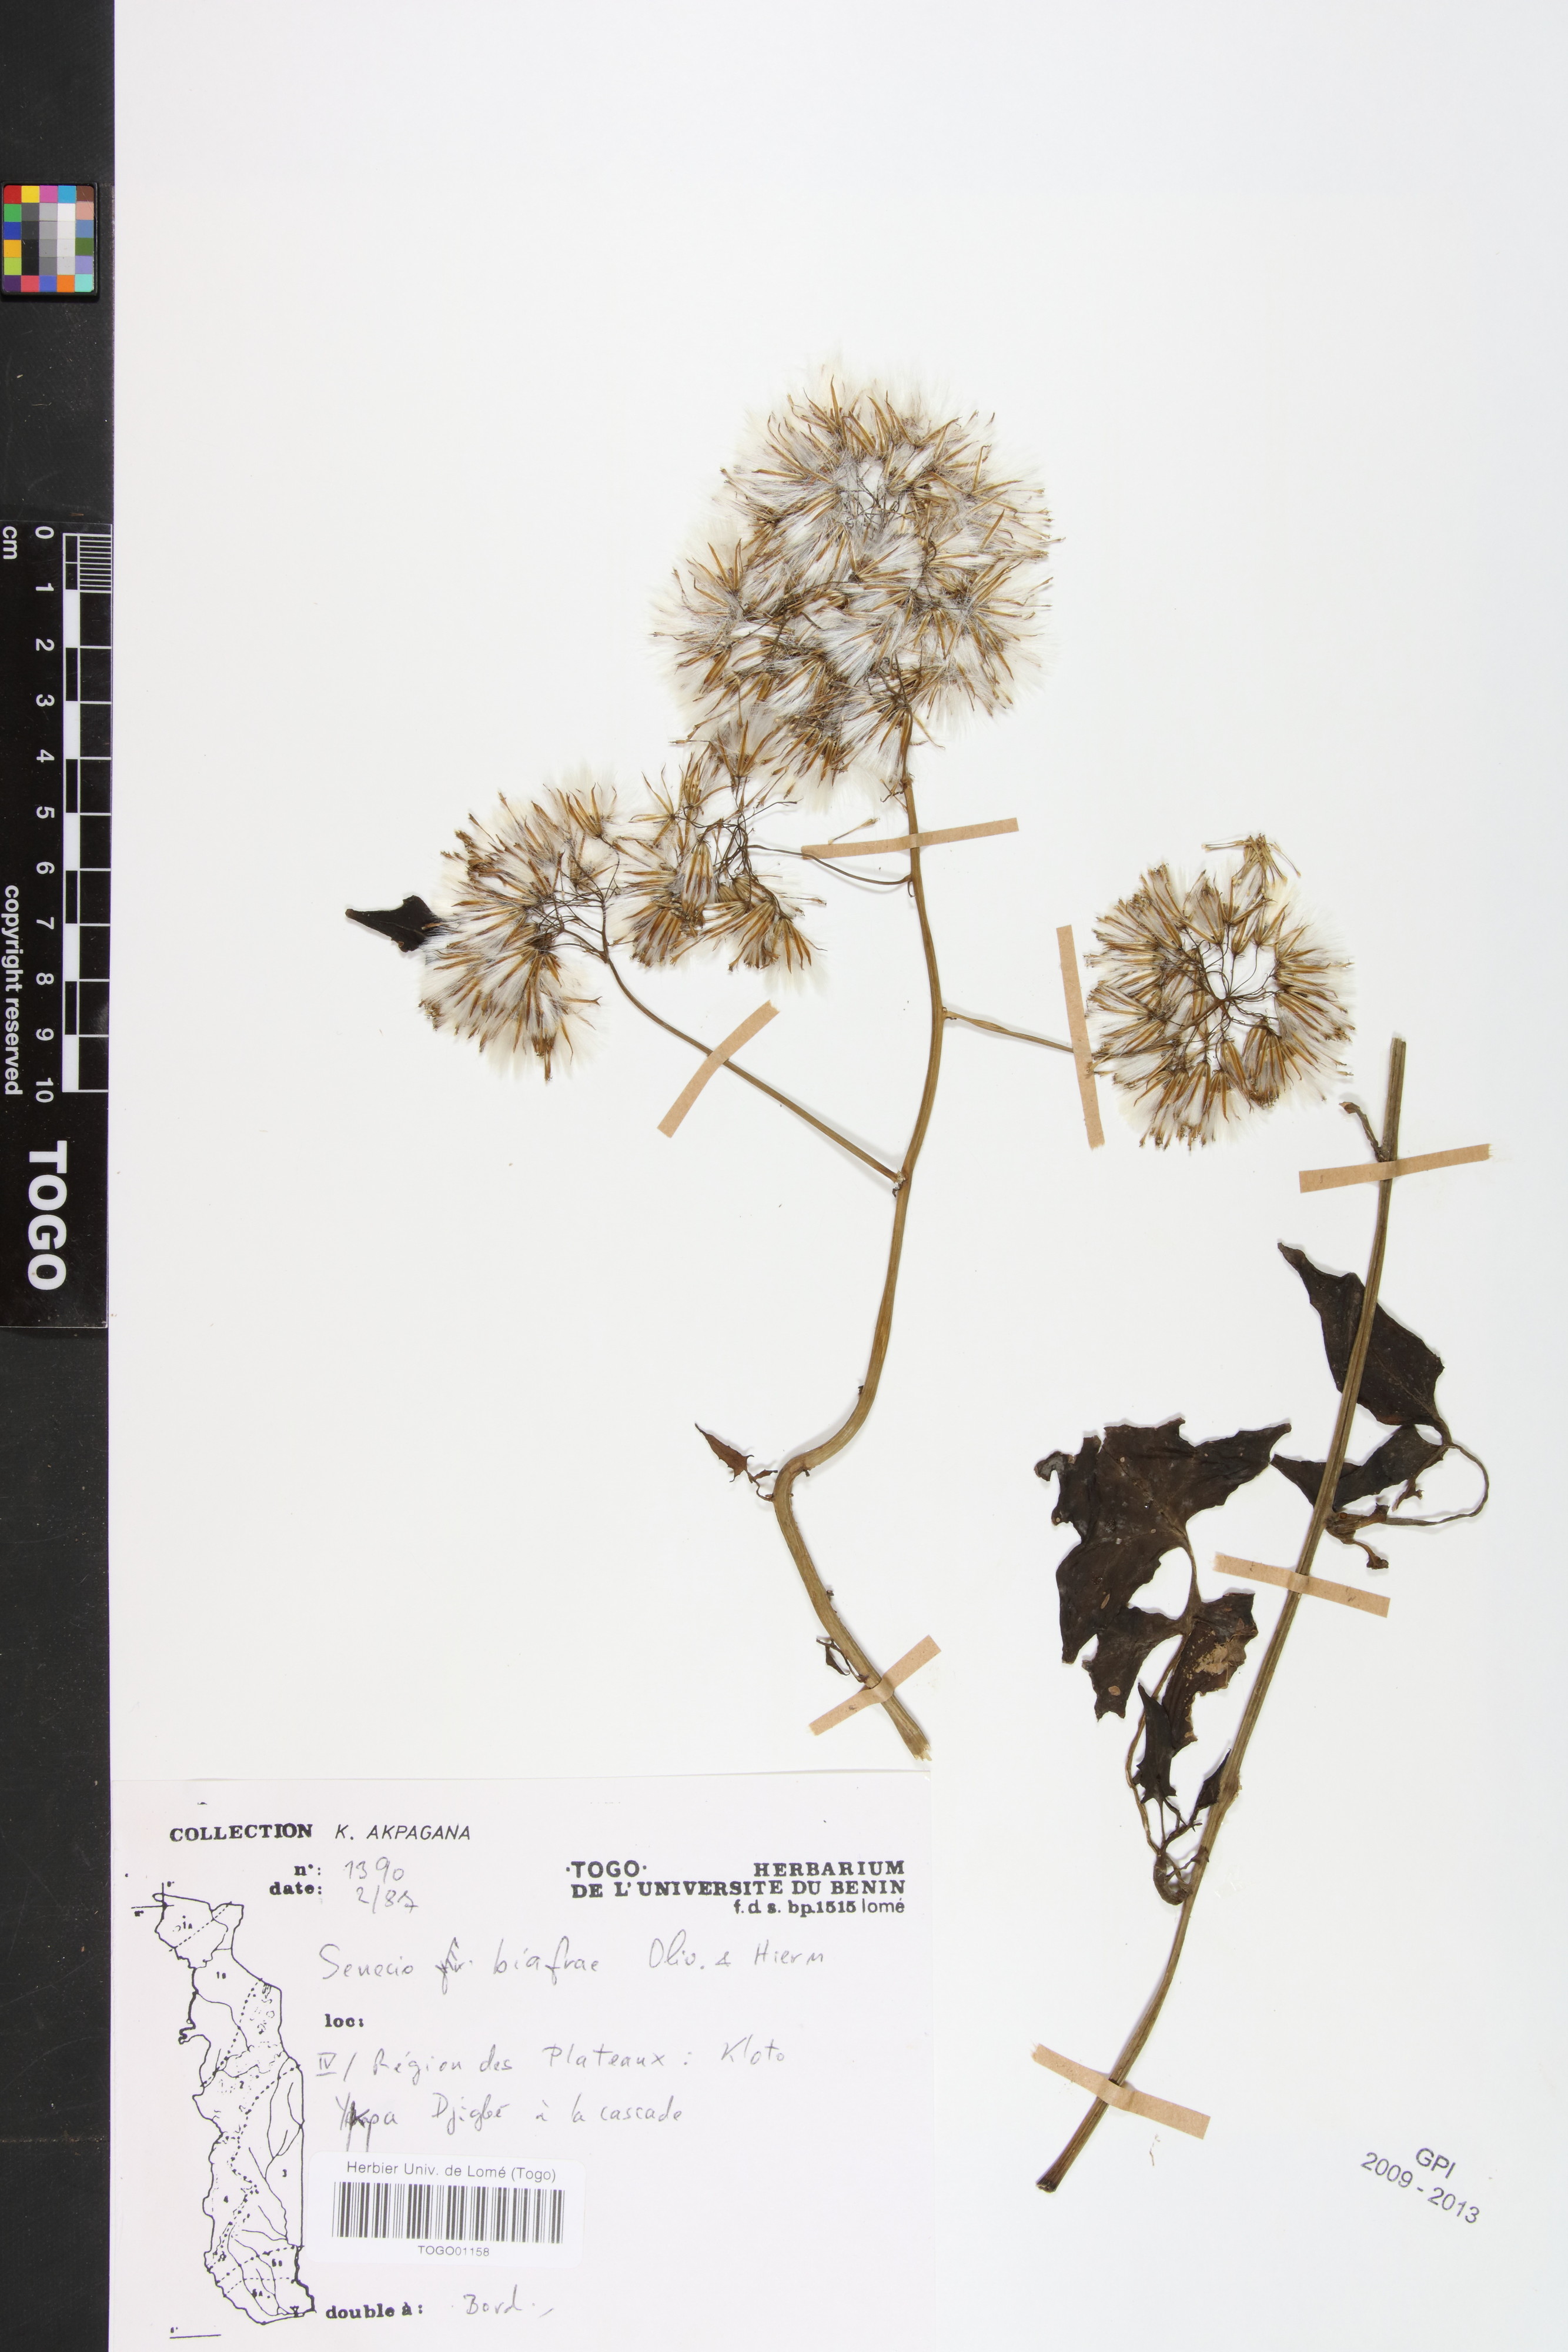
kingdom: Plantae
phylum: Tracheophyta
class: Magnoliopsida
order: Asterales
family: Asteraceae
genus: Solanecio
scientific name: Solanecio biafrae
